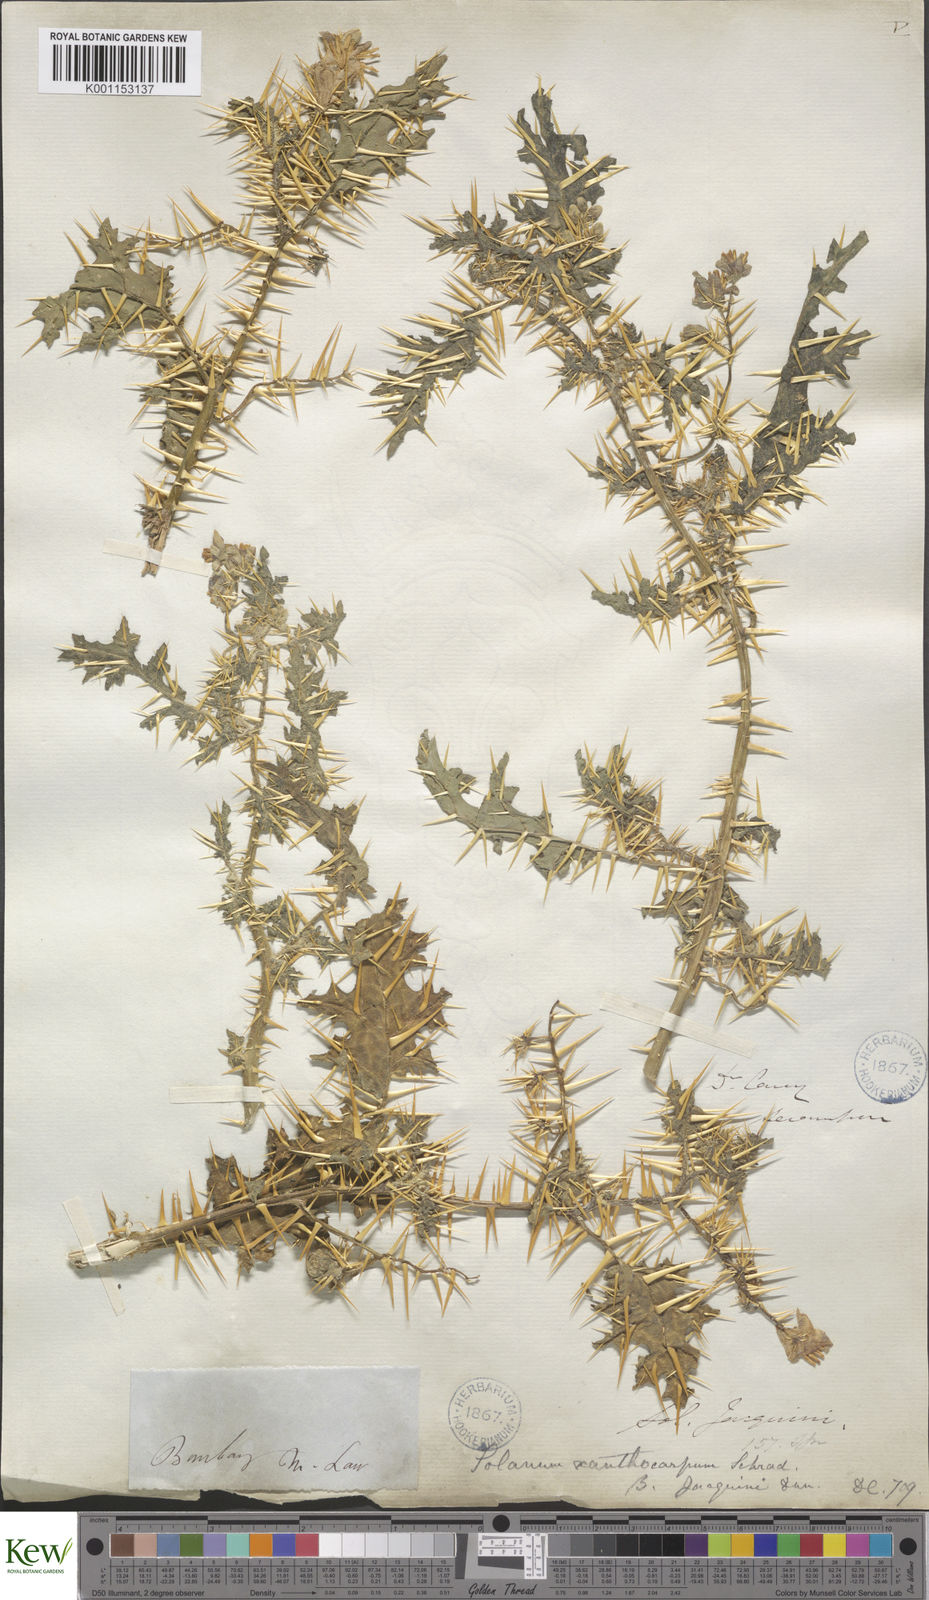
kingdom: Plantae
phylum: Tracheophyta
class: Magnoliopsida
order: Solanales
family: Solanaceae
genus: Solanum
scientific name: Solanum virginianum
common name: Surattense nightshade
